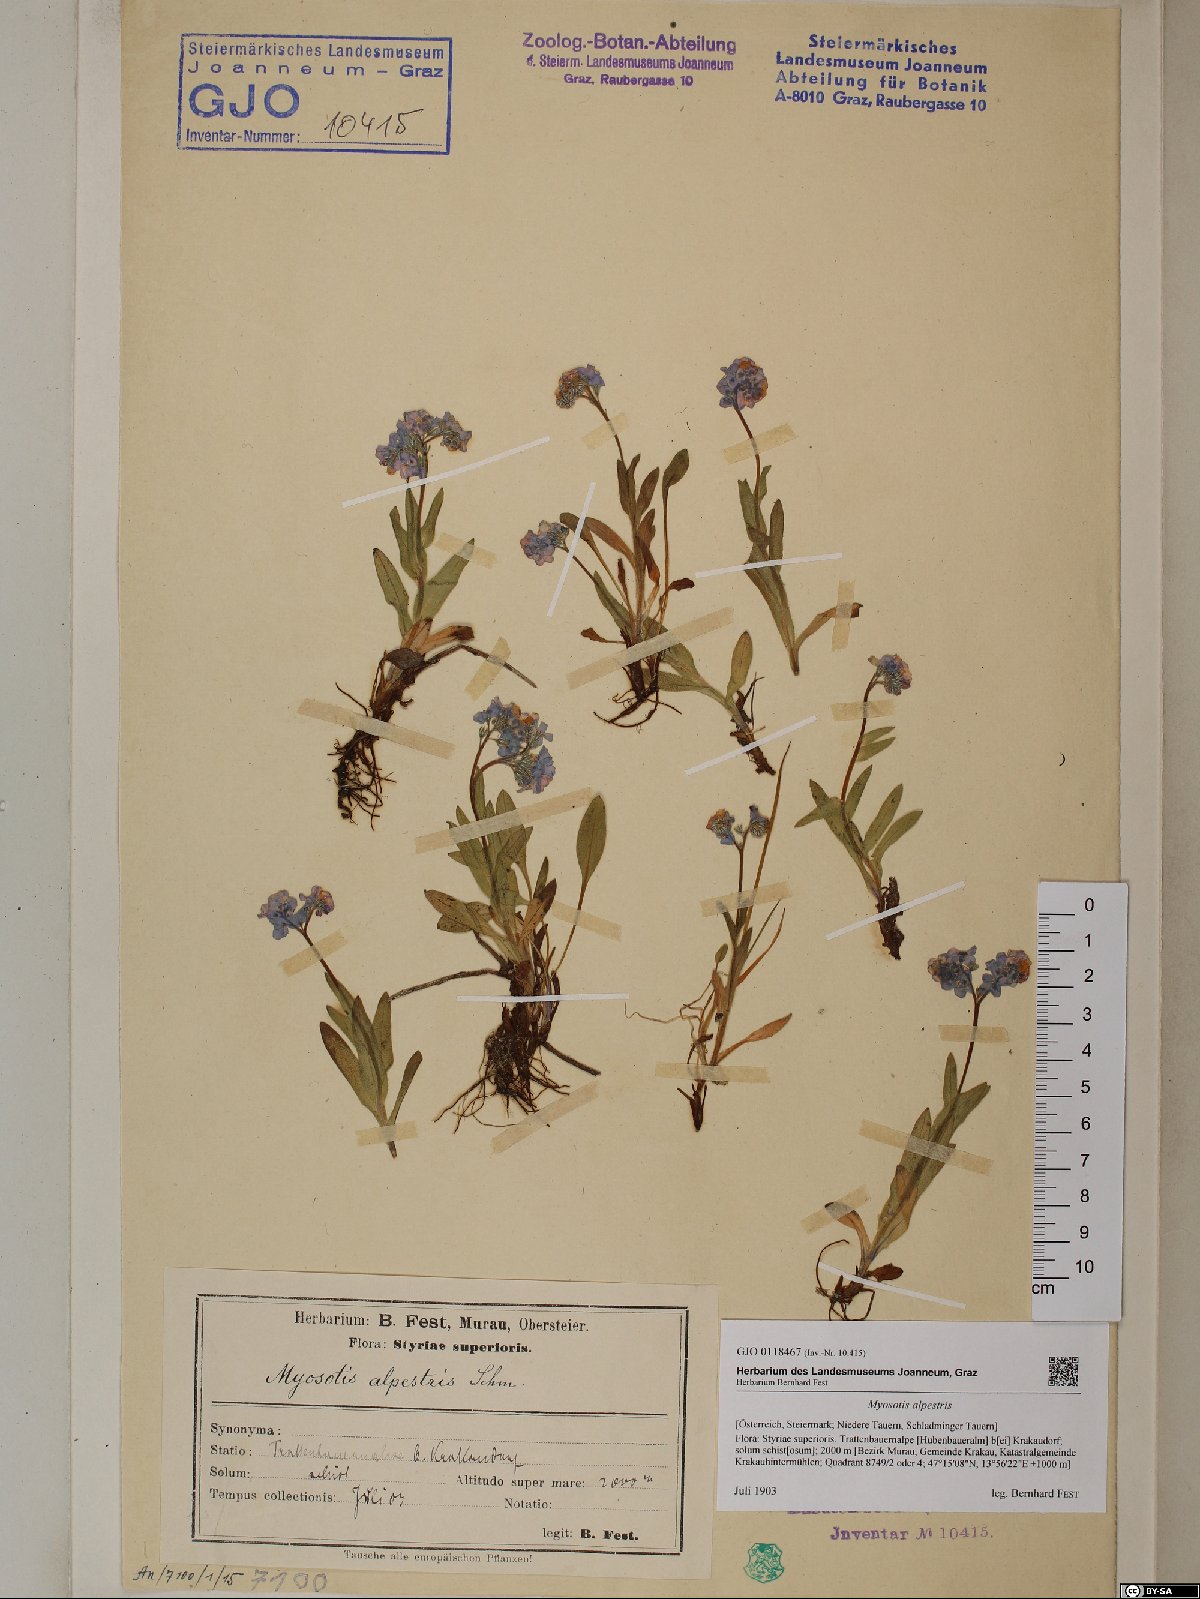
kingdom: Plantae
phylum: Tracheophyta
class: Magnoliopsida
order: Boraginales
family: Boraginaceae
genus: Myosotis
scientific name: Myosotis alpestris
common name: Alpine forget-me-not
